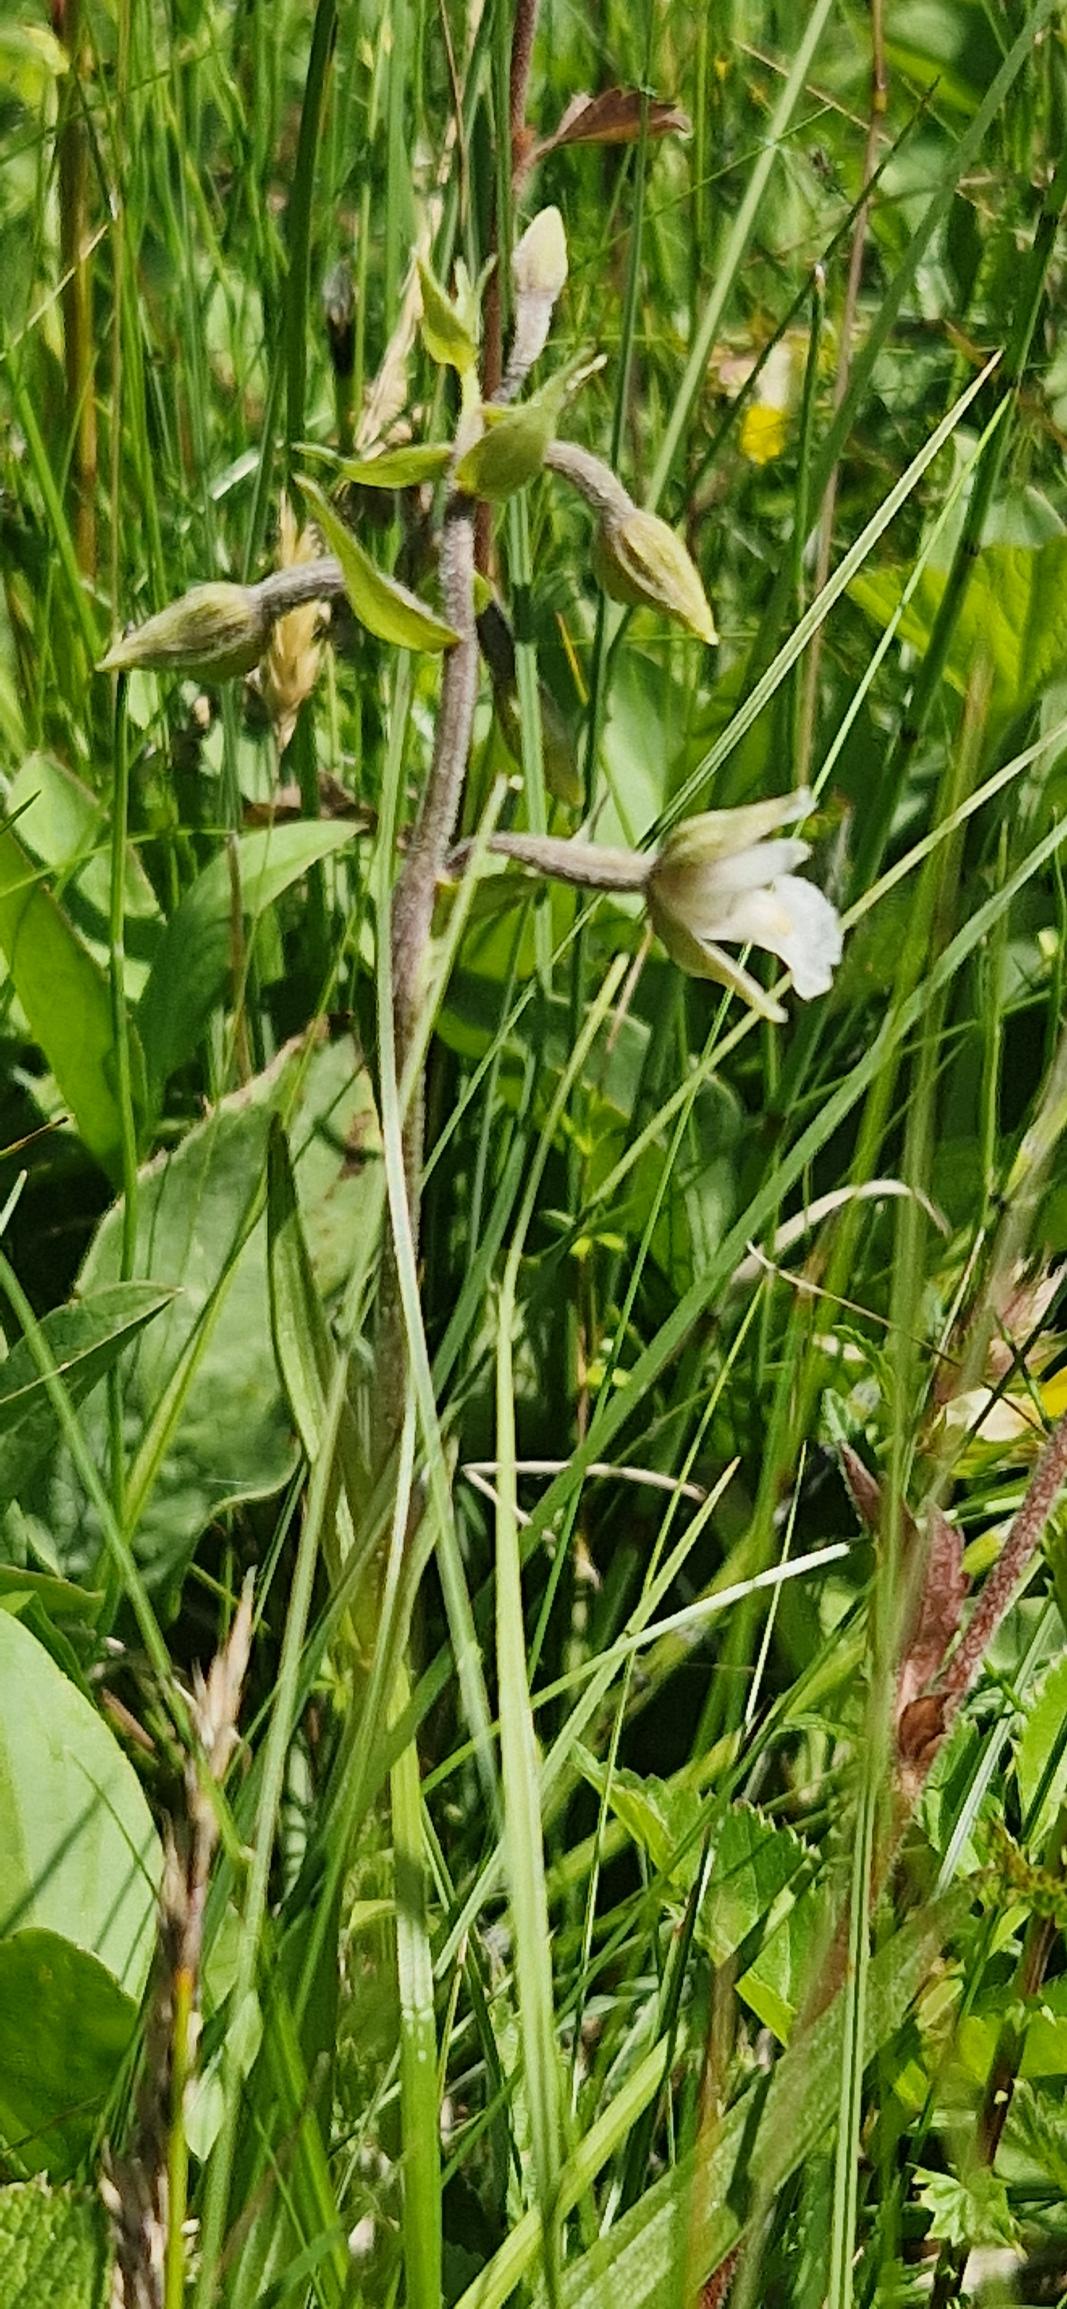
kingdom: Plantae
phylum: Tracheophyta
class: Liliopsida
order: Asparagales
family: Orchidaceae
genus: Epipactis
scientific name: Epipactis palustris
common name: Sump-hullæbe
